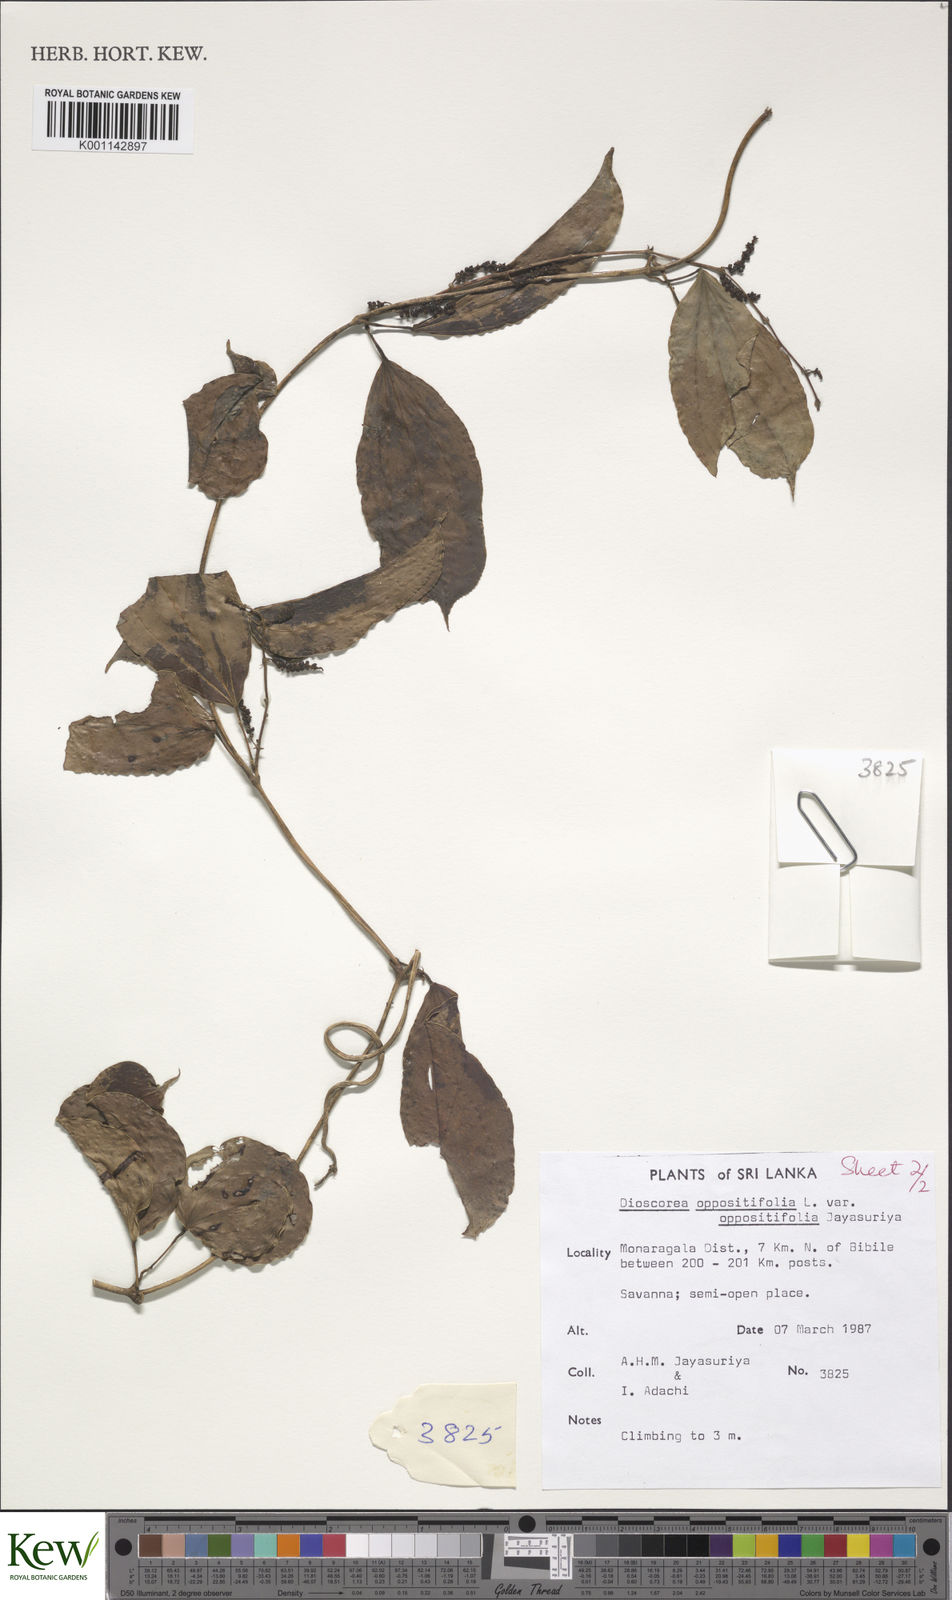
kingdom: Plantae
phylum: Tracheophyta
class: Liliopsida
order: Dioscoreales
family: Dioscoreaceae
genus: Dioscorea
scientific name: Dioscorea oppositifolia
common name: Chinese yam
